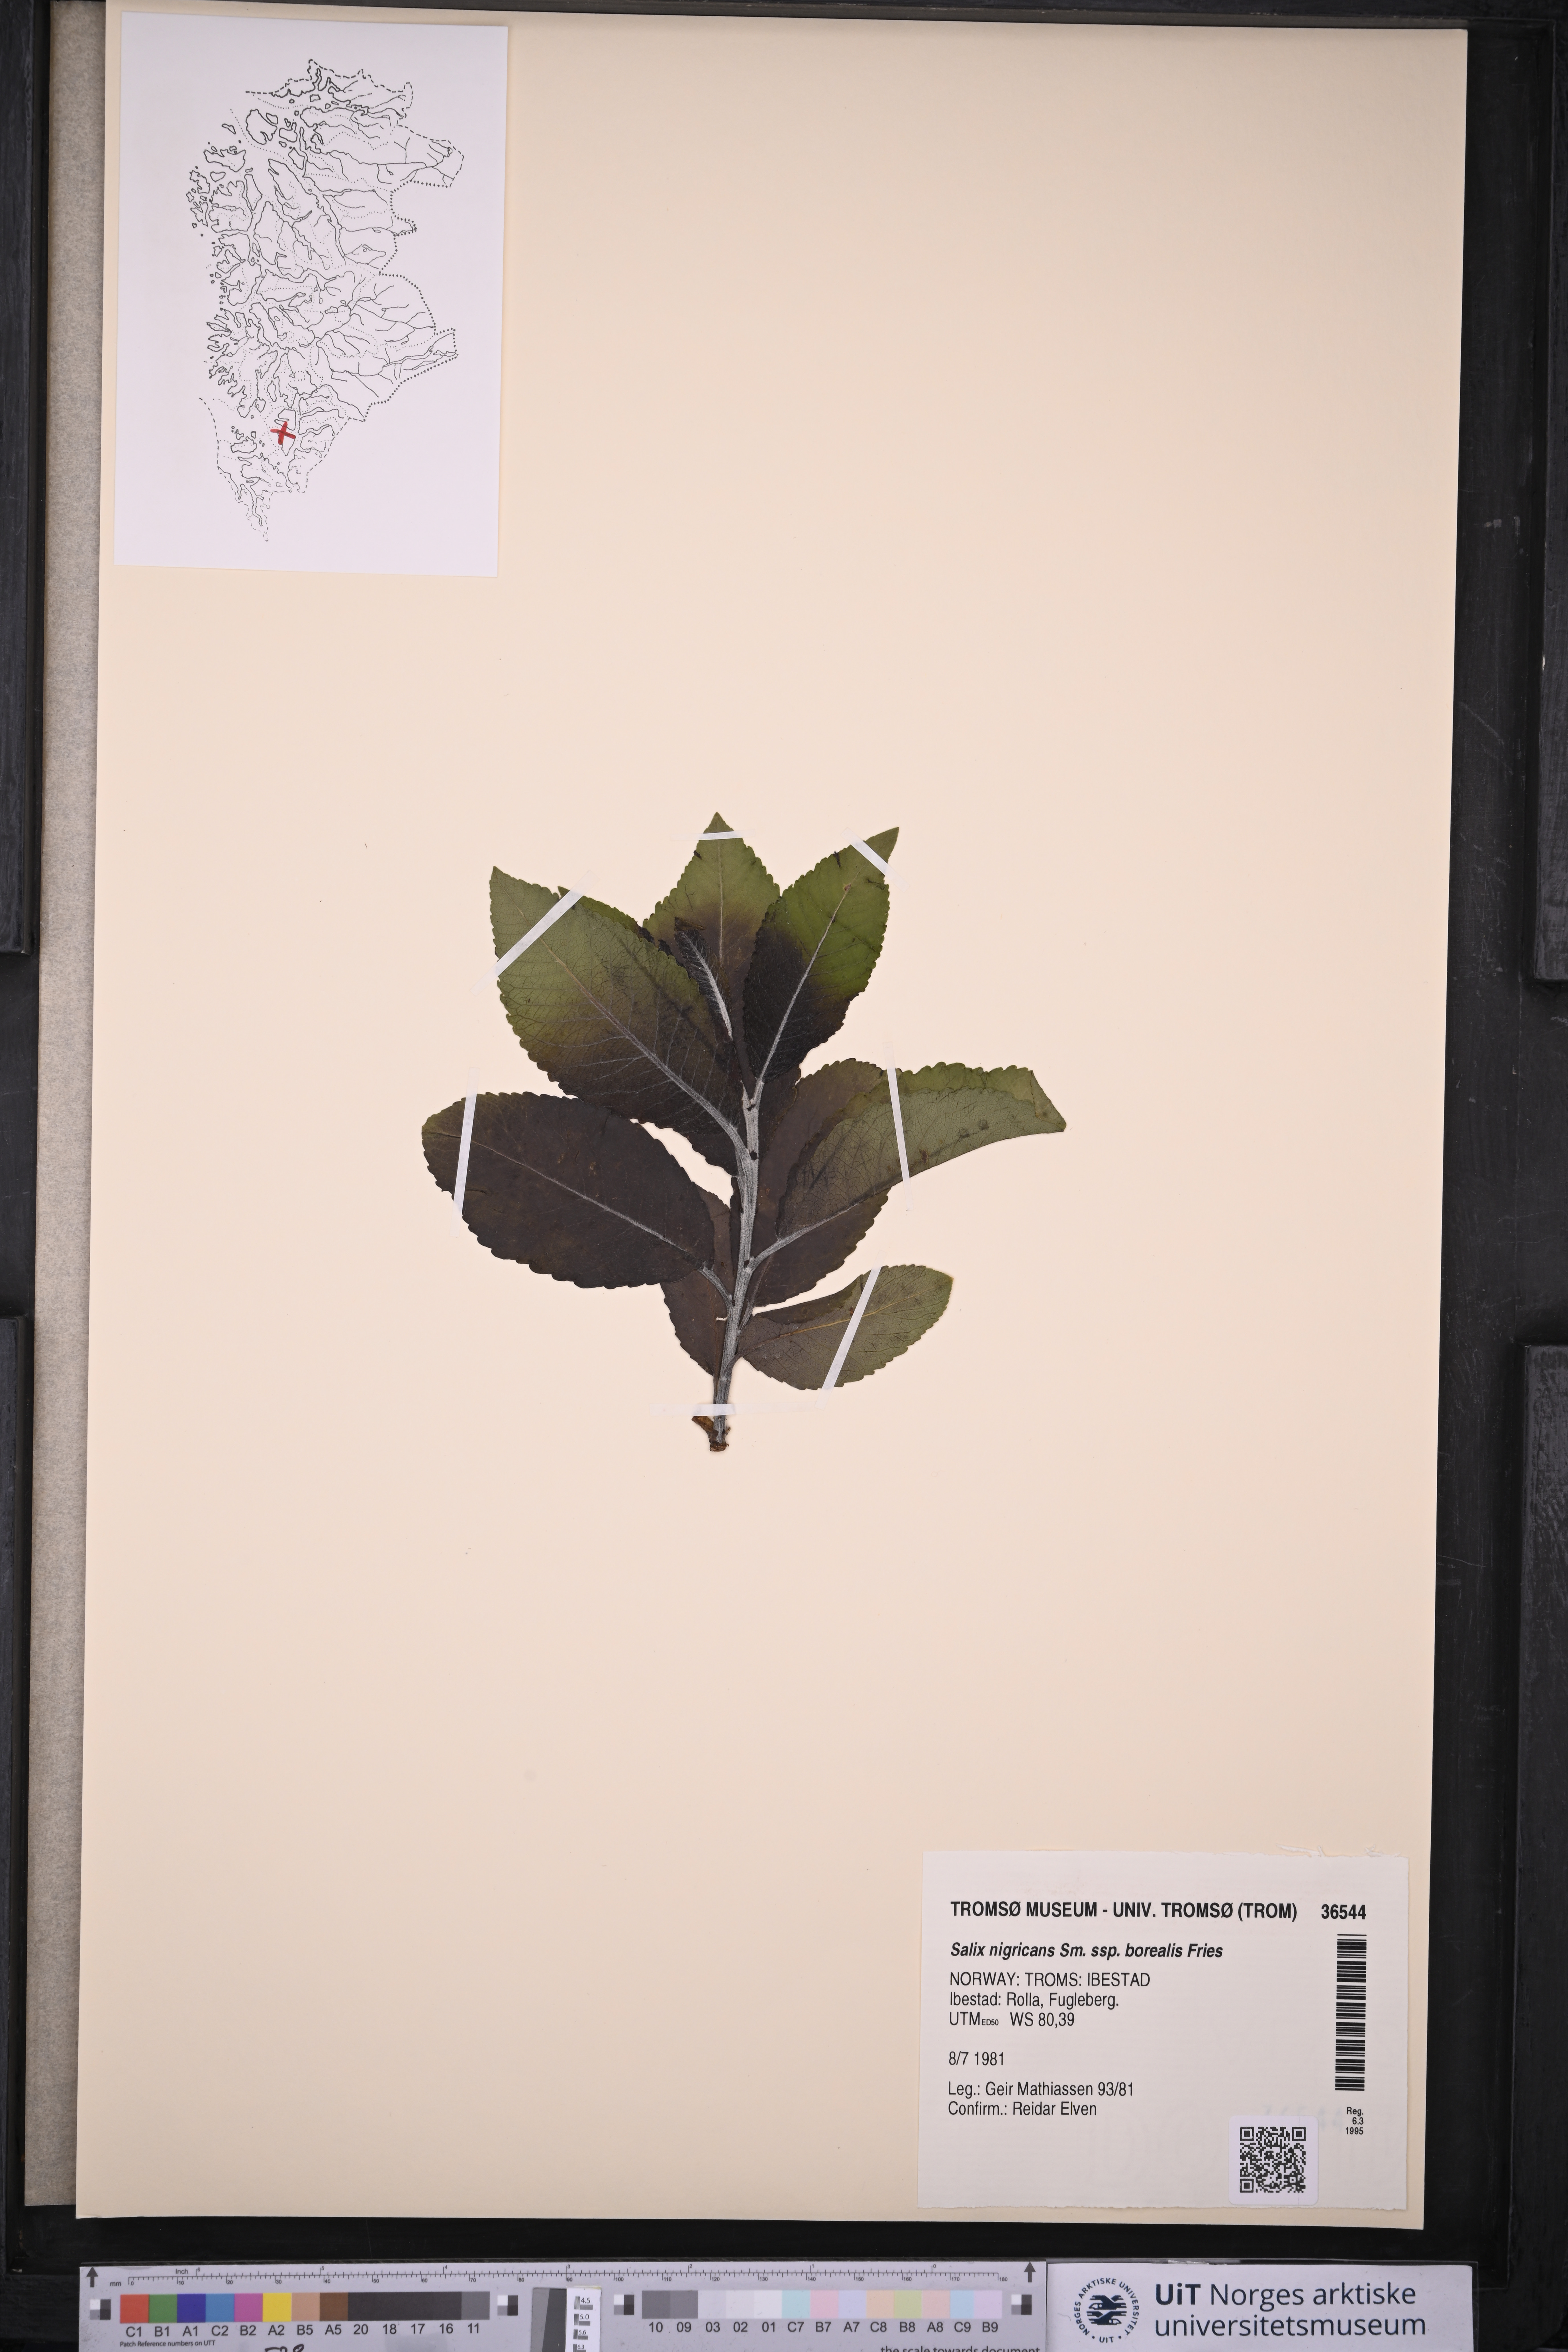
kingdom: Plantae
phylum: Tracheophyta
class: Magnoliopsida
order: Malpighiales
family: Salicaceae
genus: Salix
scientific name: Salix myrsinifolia
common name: Dark-leaved willow
